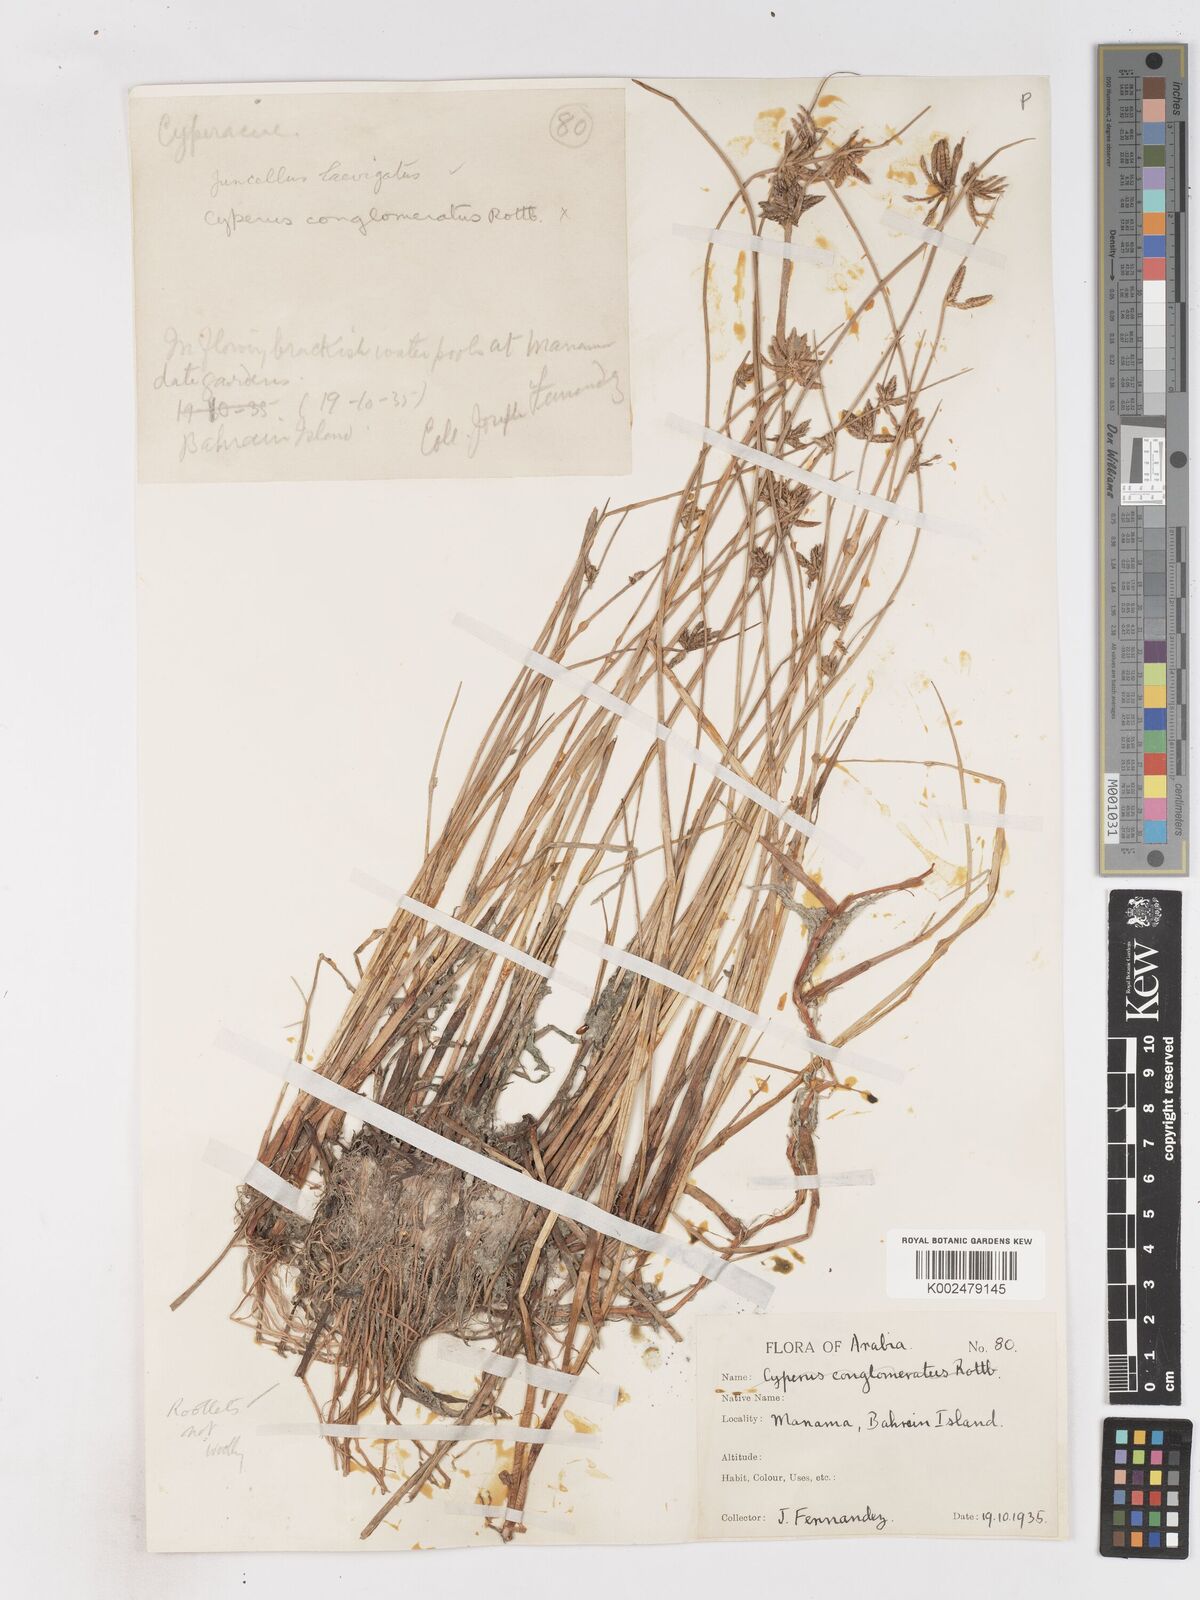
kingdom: Plantae
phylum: Tracheophyta
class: Liliopsida
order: Poales
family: Cyperaceae
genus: Cyperus
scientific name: Cyperus laevigatus
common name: Smooth flat sedge
